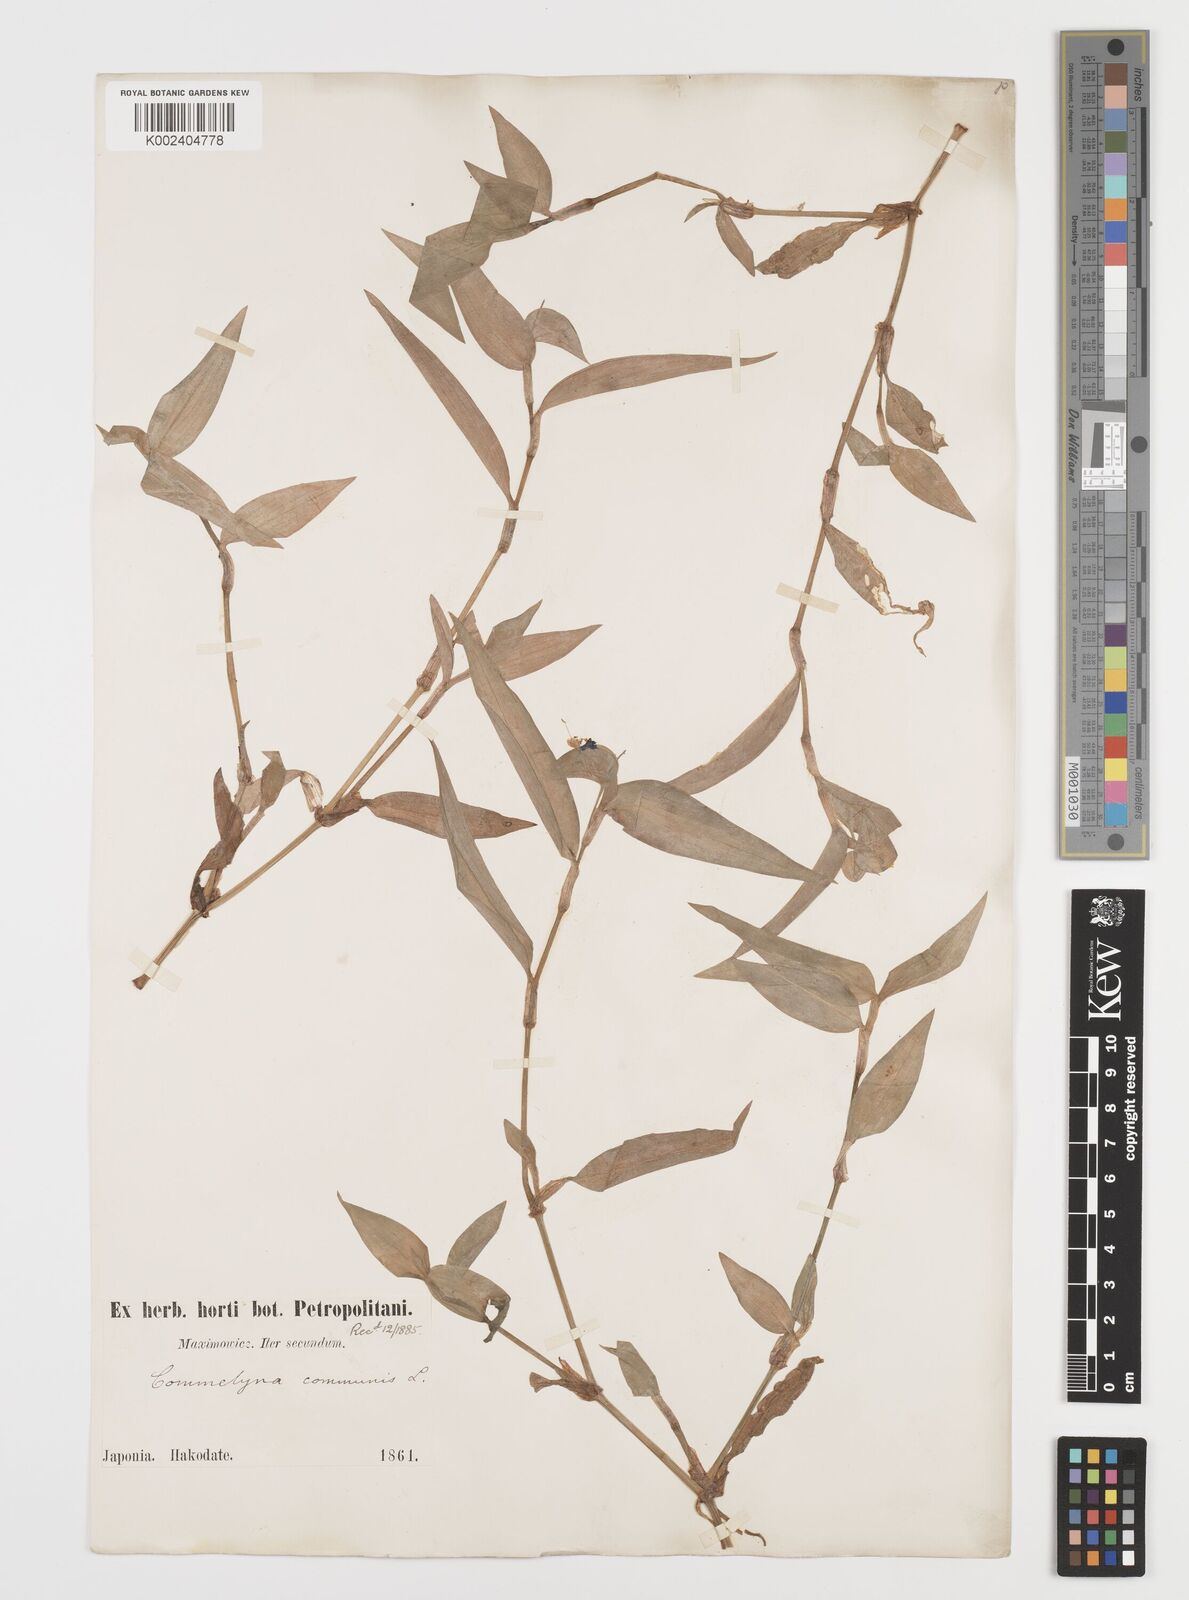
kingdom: Plantae
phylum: Tracheophyta
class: Liliopsida
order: Commelinales
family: Commelinaceae
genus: Commelina
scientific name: Commelina communis
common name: Asiatic dayflower
